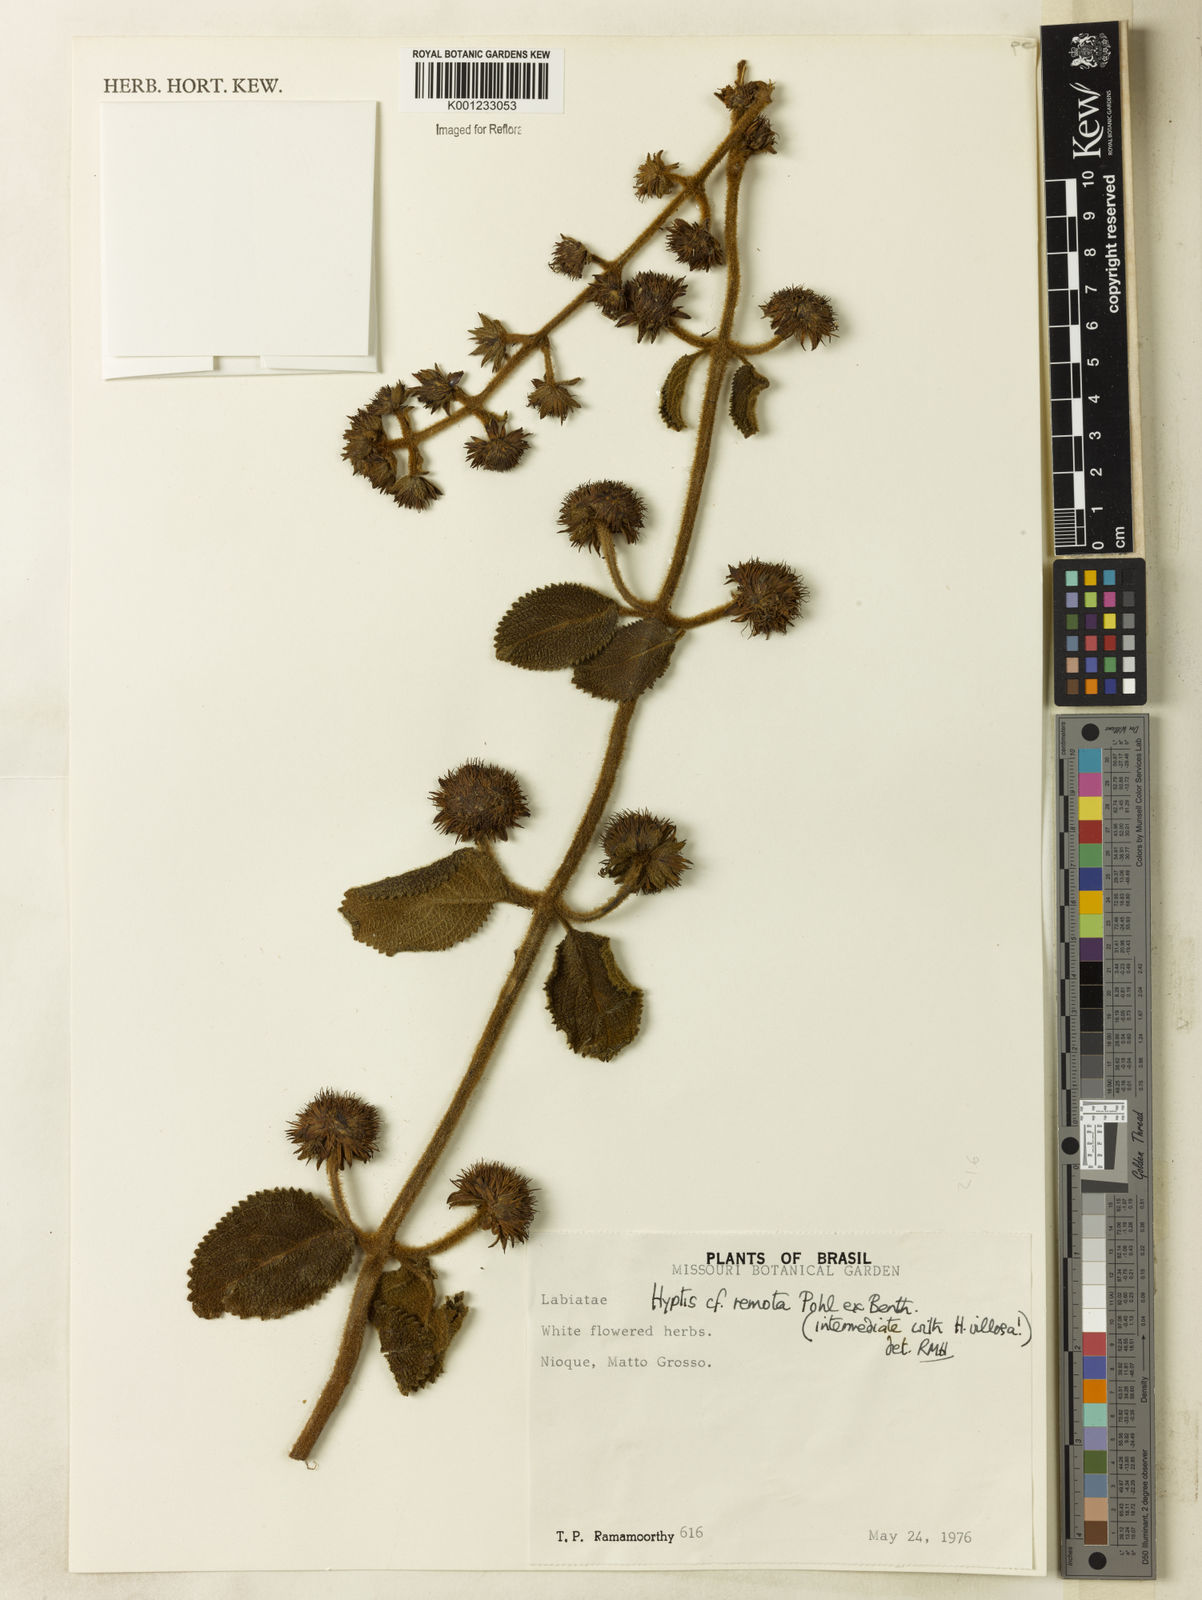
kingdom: Plantae
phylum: Tracheophyta
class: Magnoliopsida
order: Lamiales
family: Lamiaceae
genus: Hyptis
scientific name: Hyptis remota
